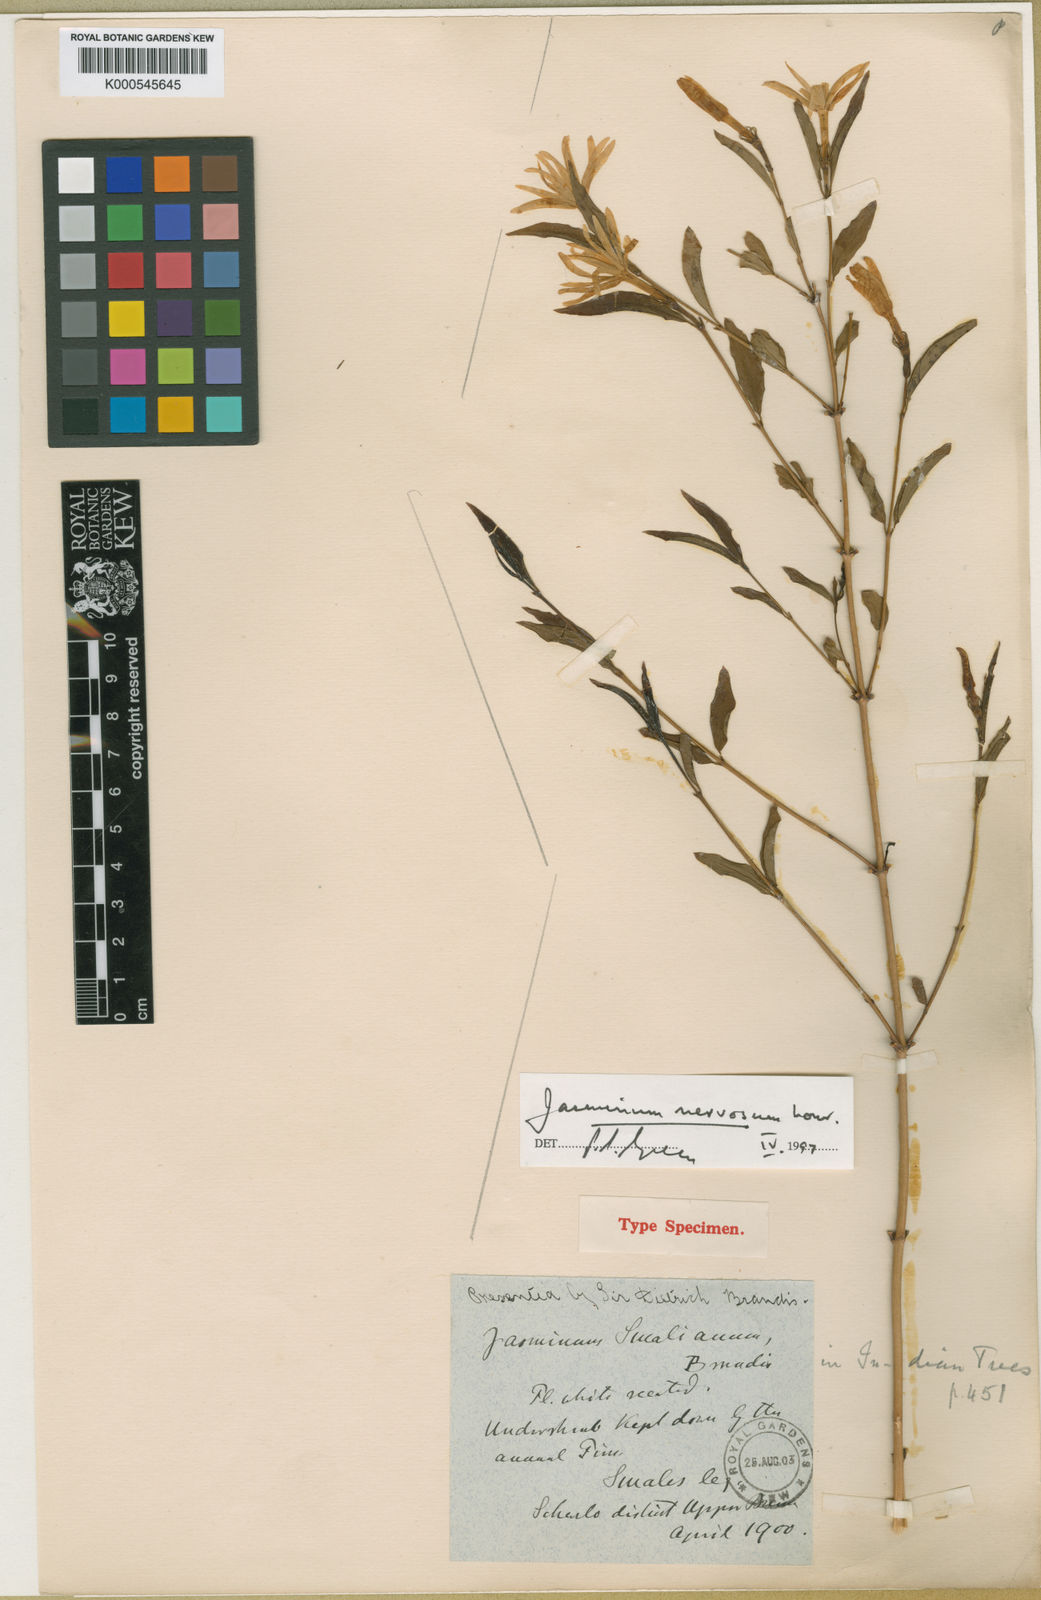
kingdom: Plantae
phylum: Tracheophyta
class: Magnoliopsida
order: Lamiales
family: Oleaceae
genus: Jasminum
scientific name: Jasminum nervosum
